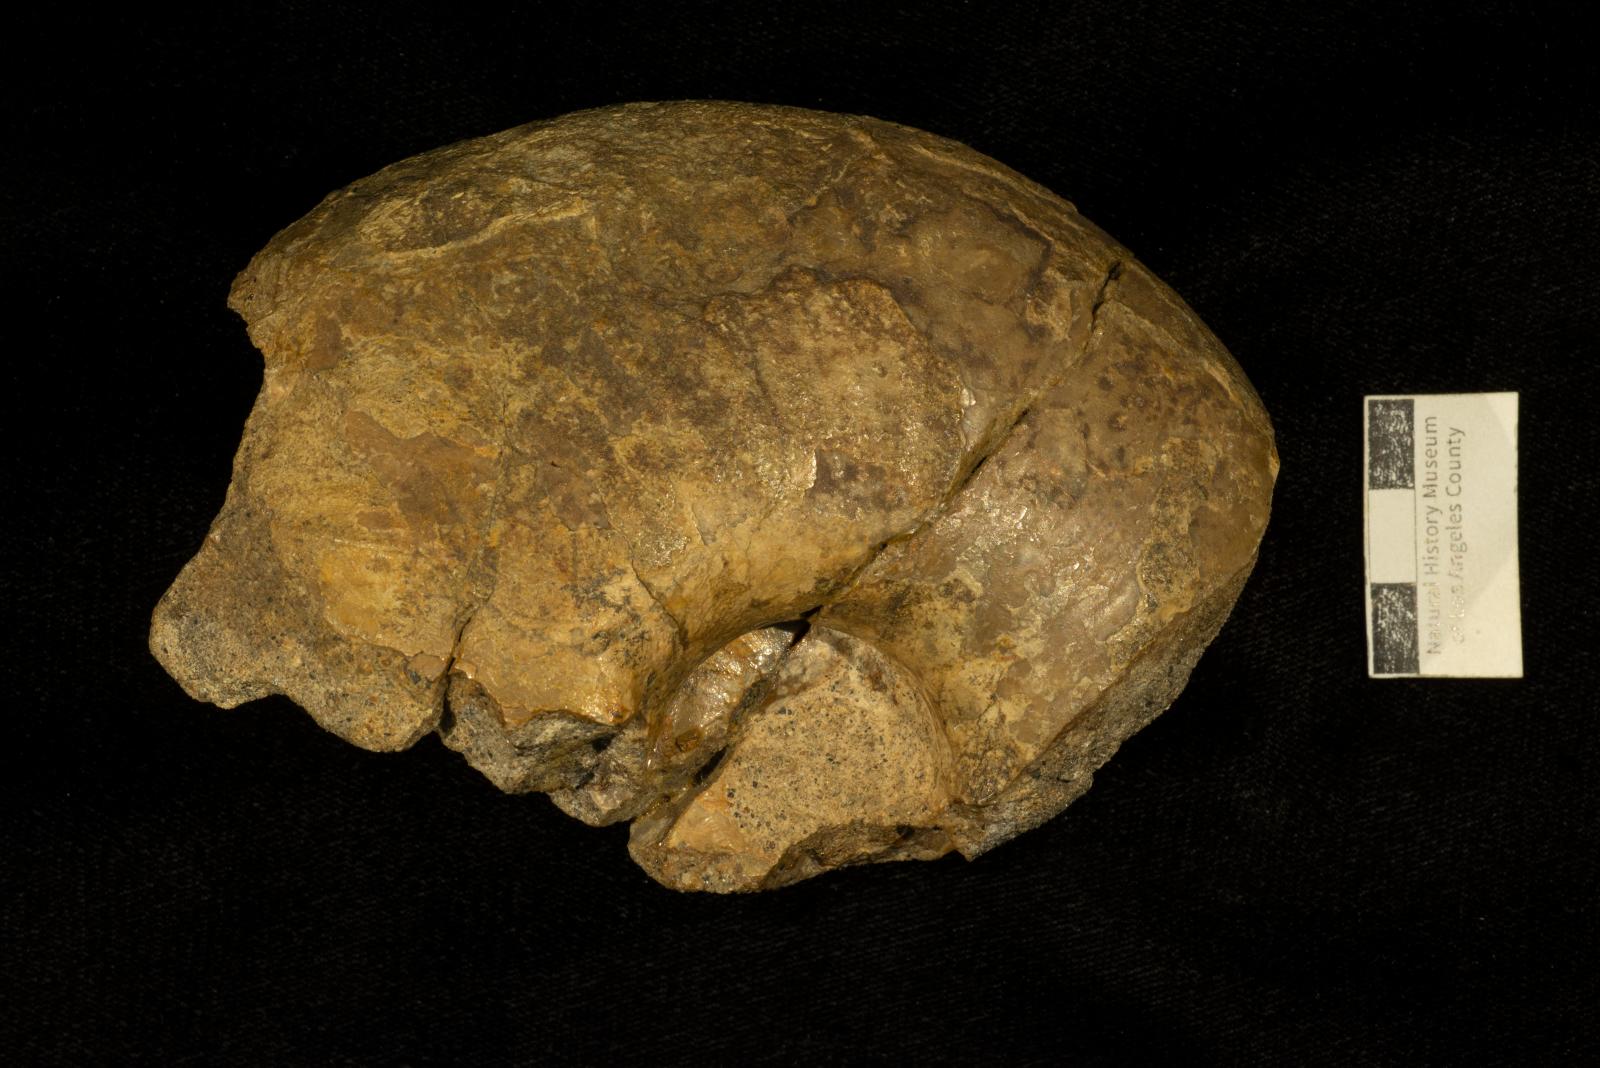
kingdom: Animalia
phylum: Mollusca
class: Cephalopoda
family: Pachydiscidae
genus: Pachydiscus
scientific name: Pachydiscus
